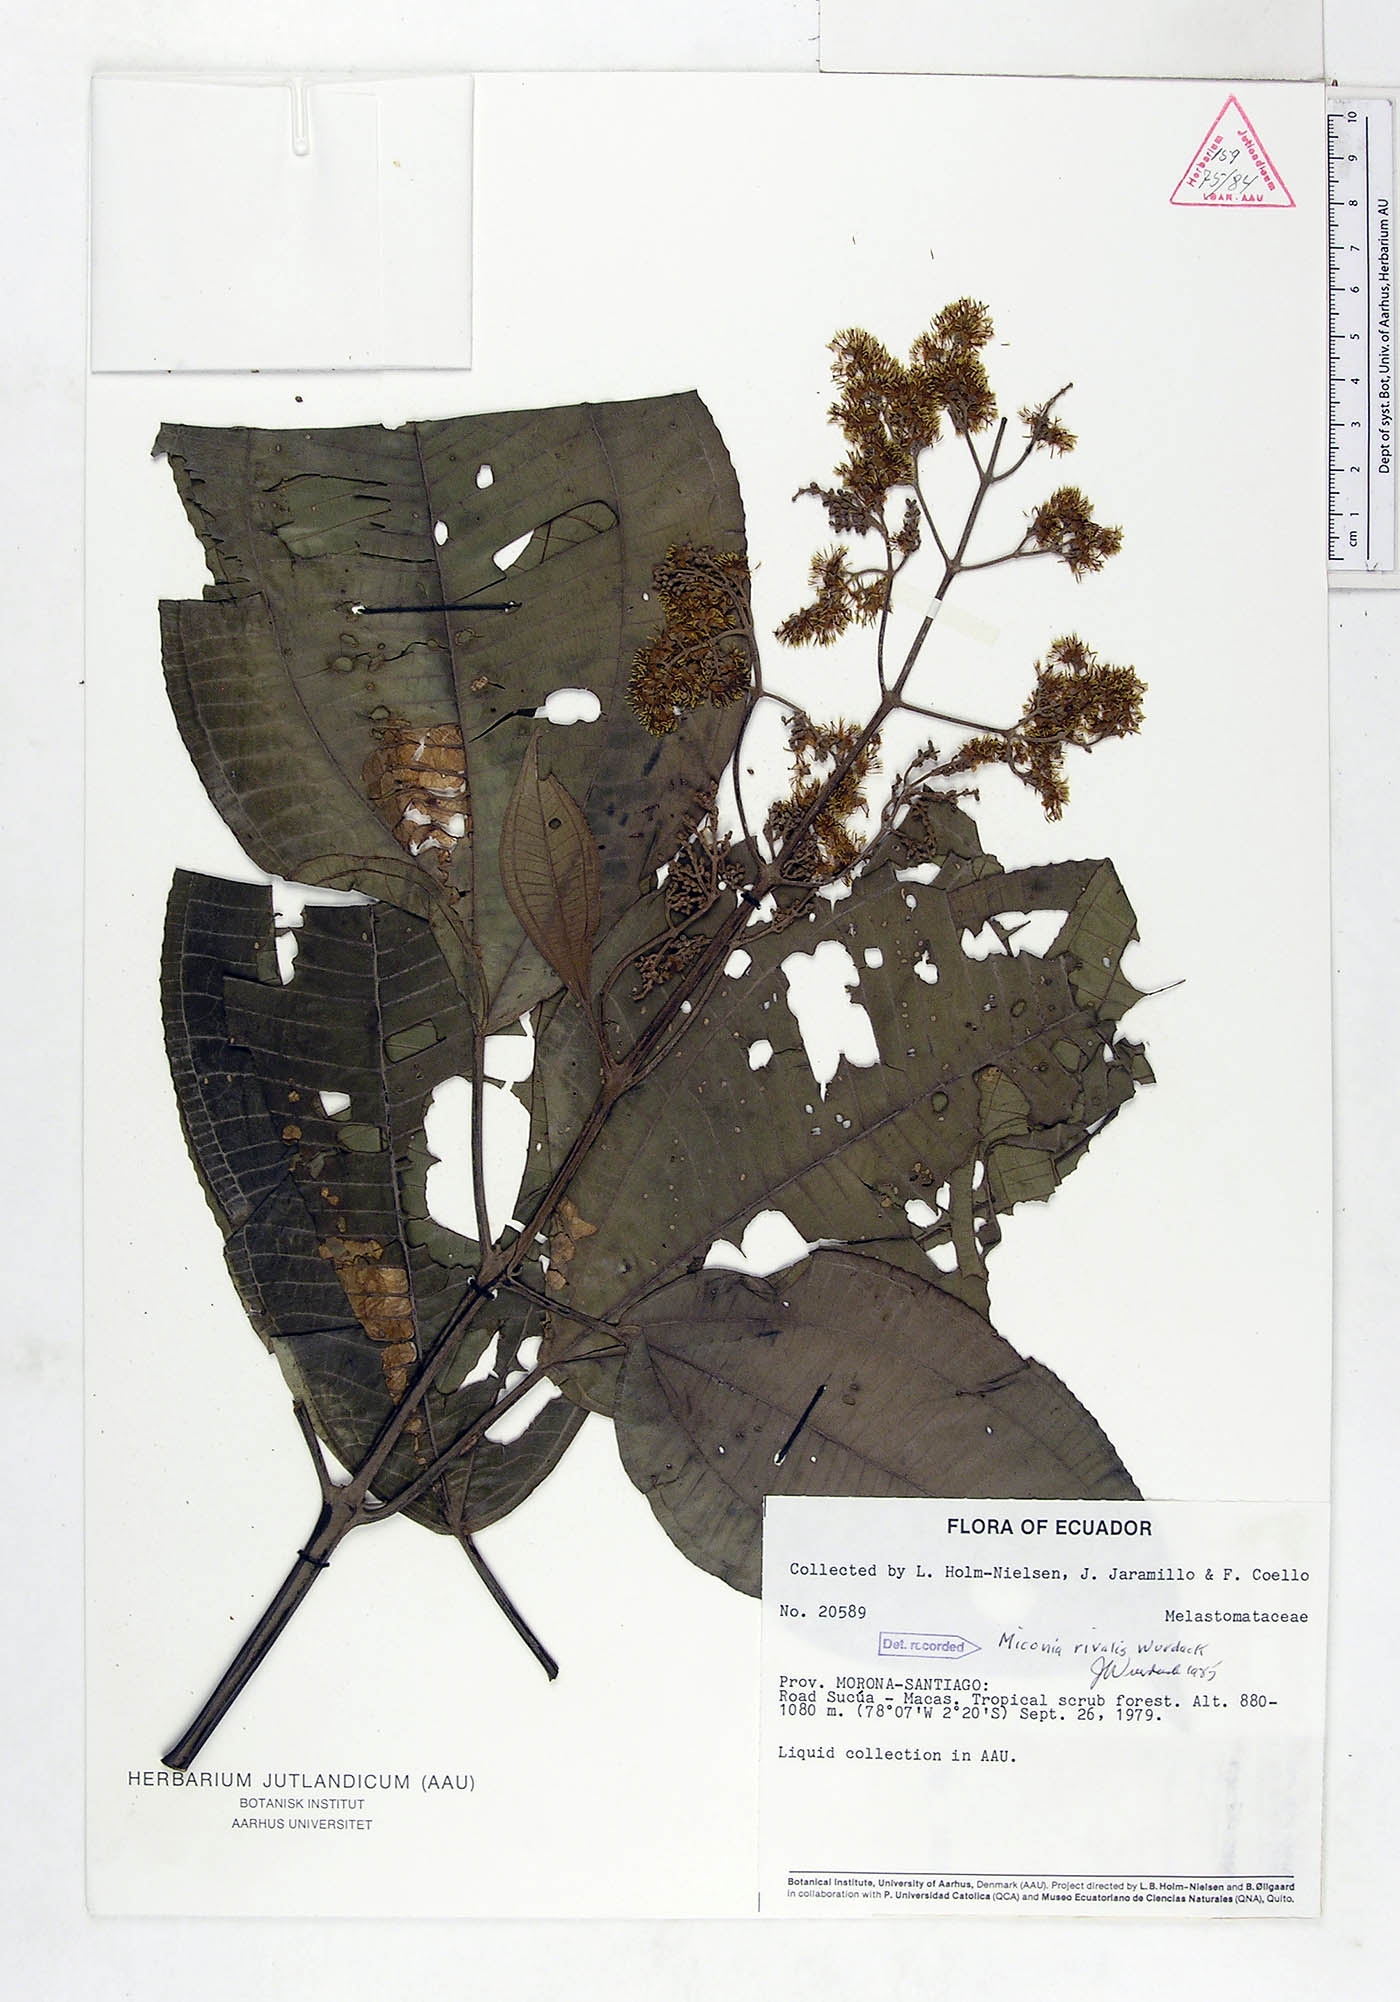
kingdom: Plantae
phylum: Tracheophyta
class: Magnoliopsida
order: Myrtales
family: Melastomataceae
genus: Miconia
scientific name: Miconia rivalis
